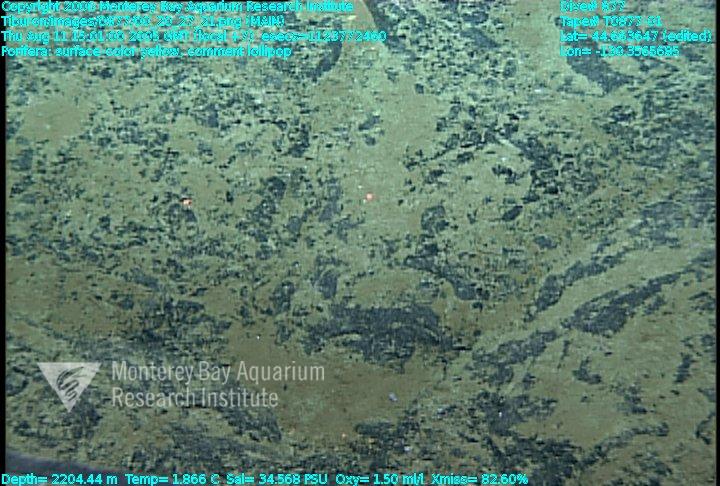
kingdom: Animalia
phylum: Porifera
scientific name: Porifera
